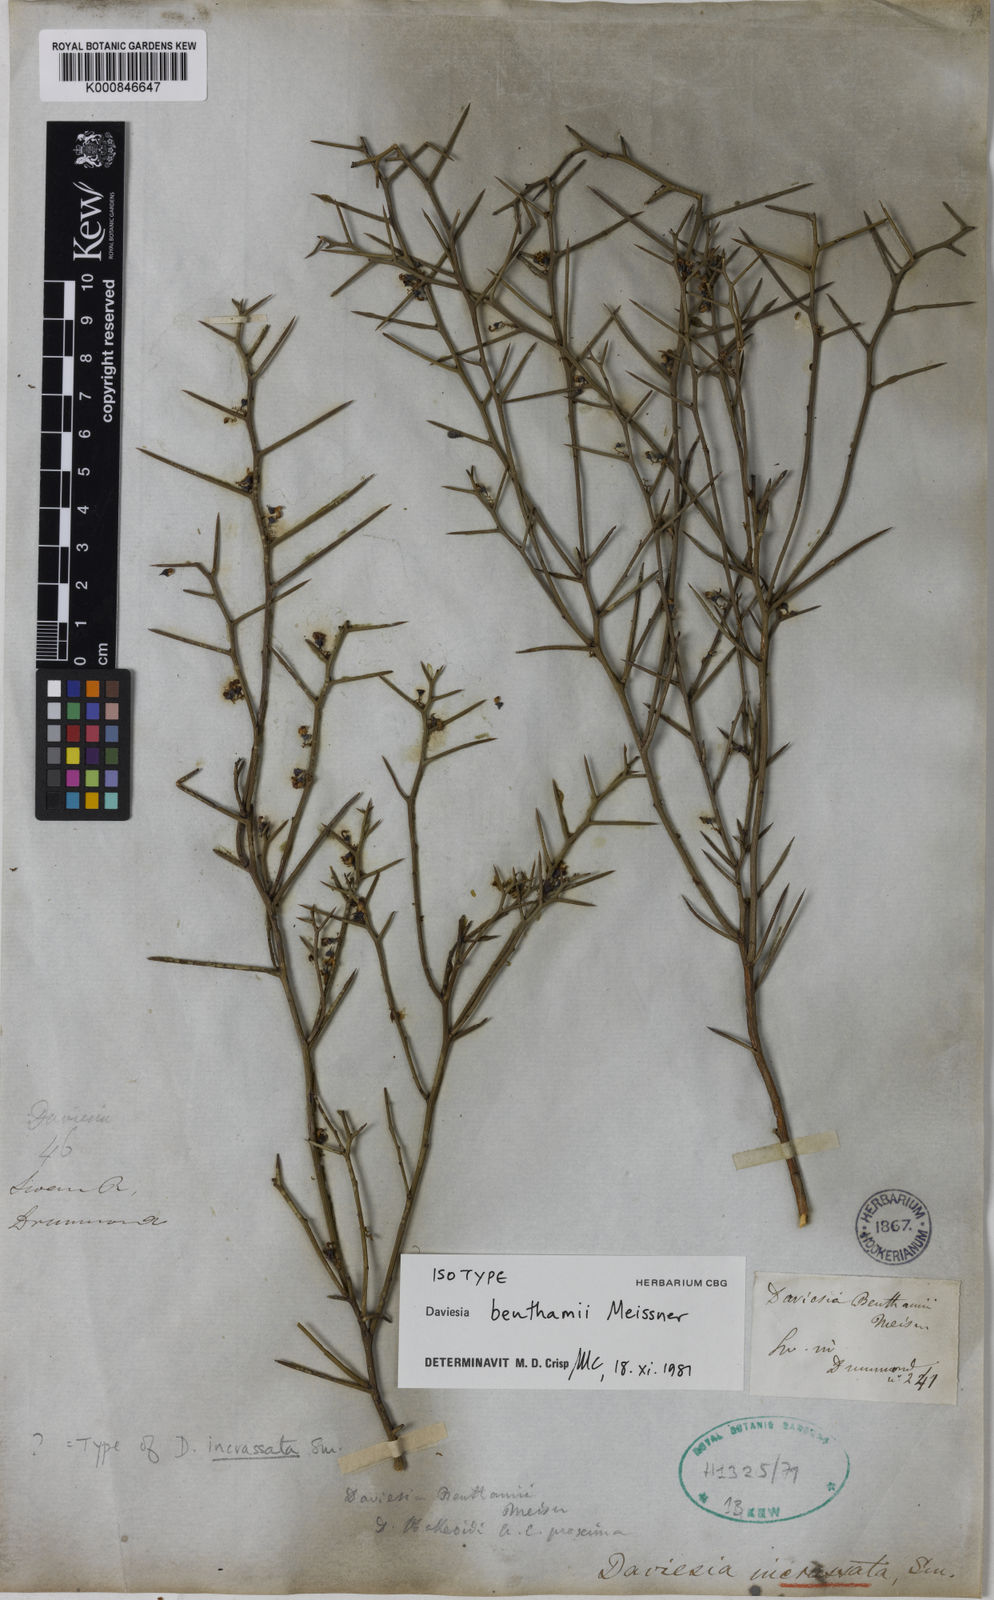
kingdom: Plantae
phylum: Tracheophyta
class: Magnoliopsida
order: Fabales
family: Fabaceae
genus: Daviesia
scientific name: Daviesia benthamii
